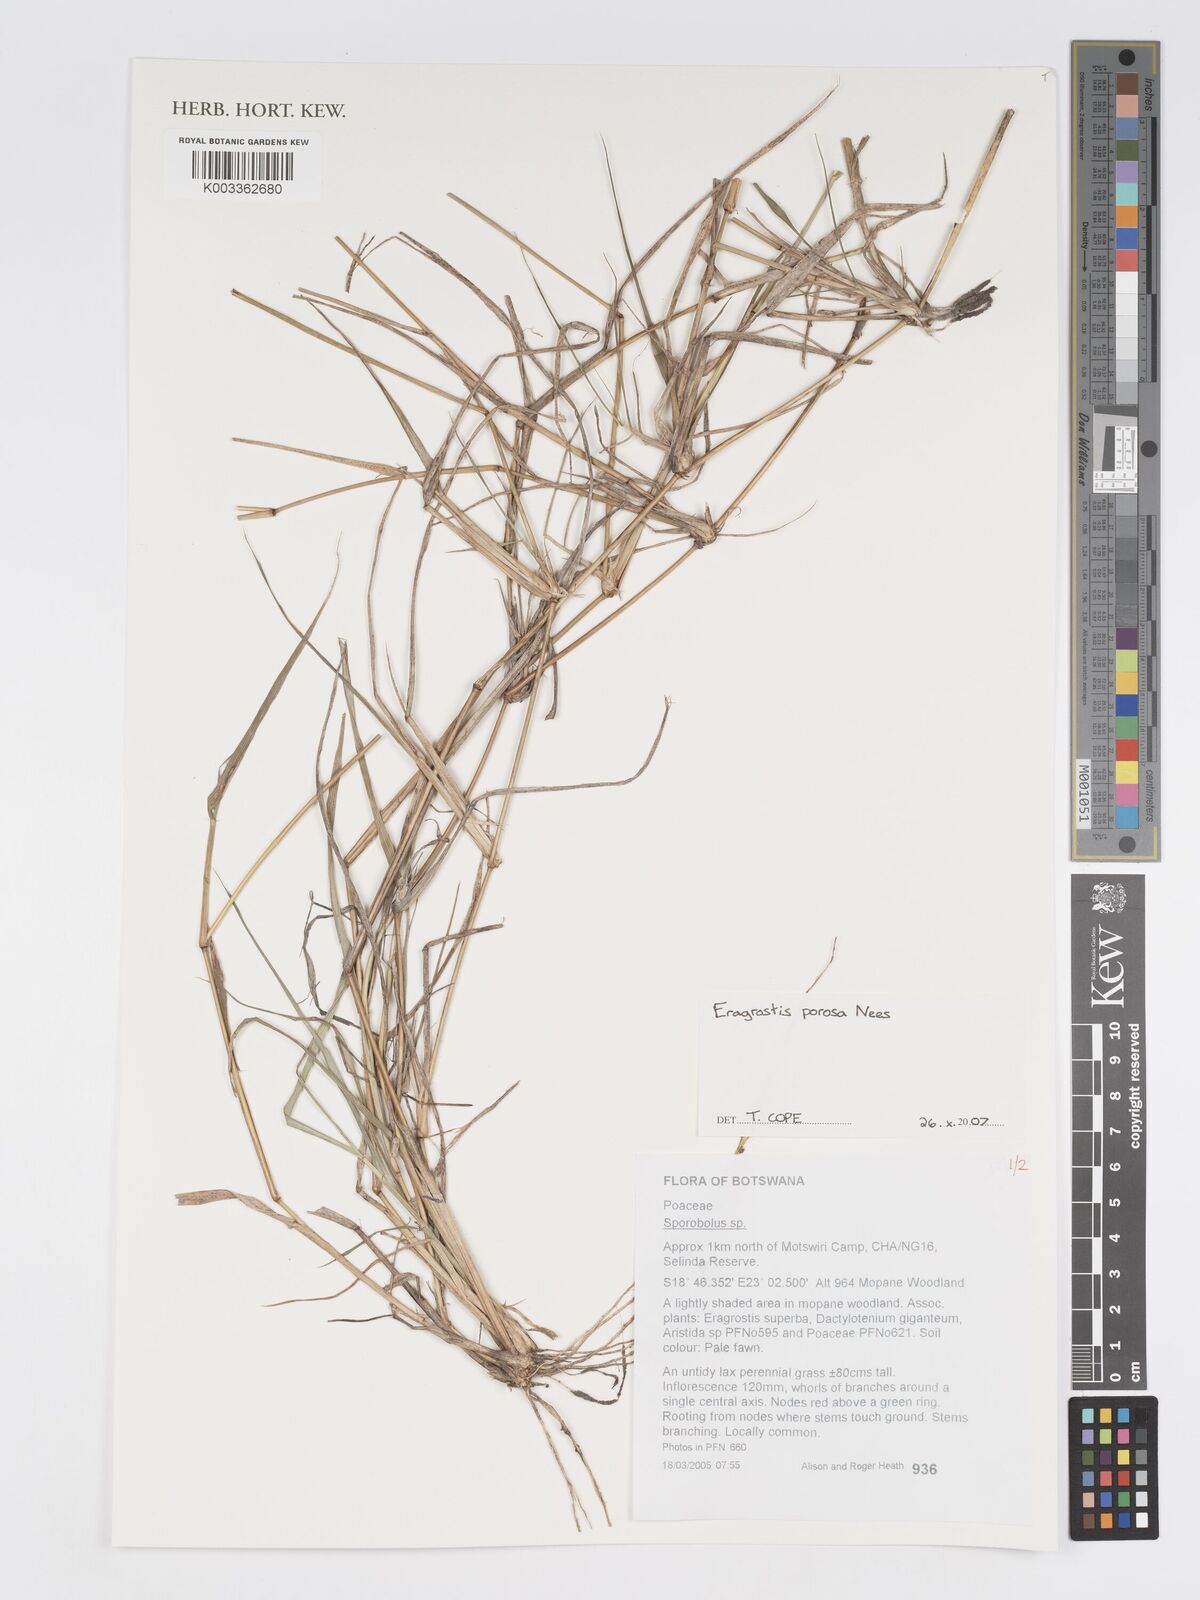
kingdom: Plantae
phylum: Tracheophyta
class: Liliopsida
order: Poales
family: Poaceae
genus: Eragrostis
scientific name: Eragrostis porosa
